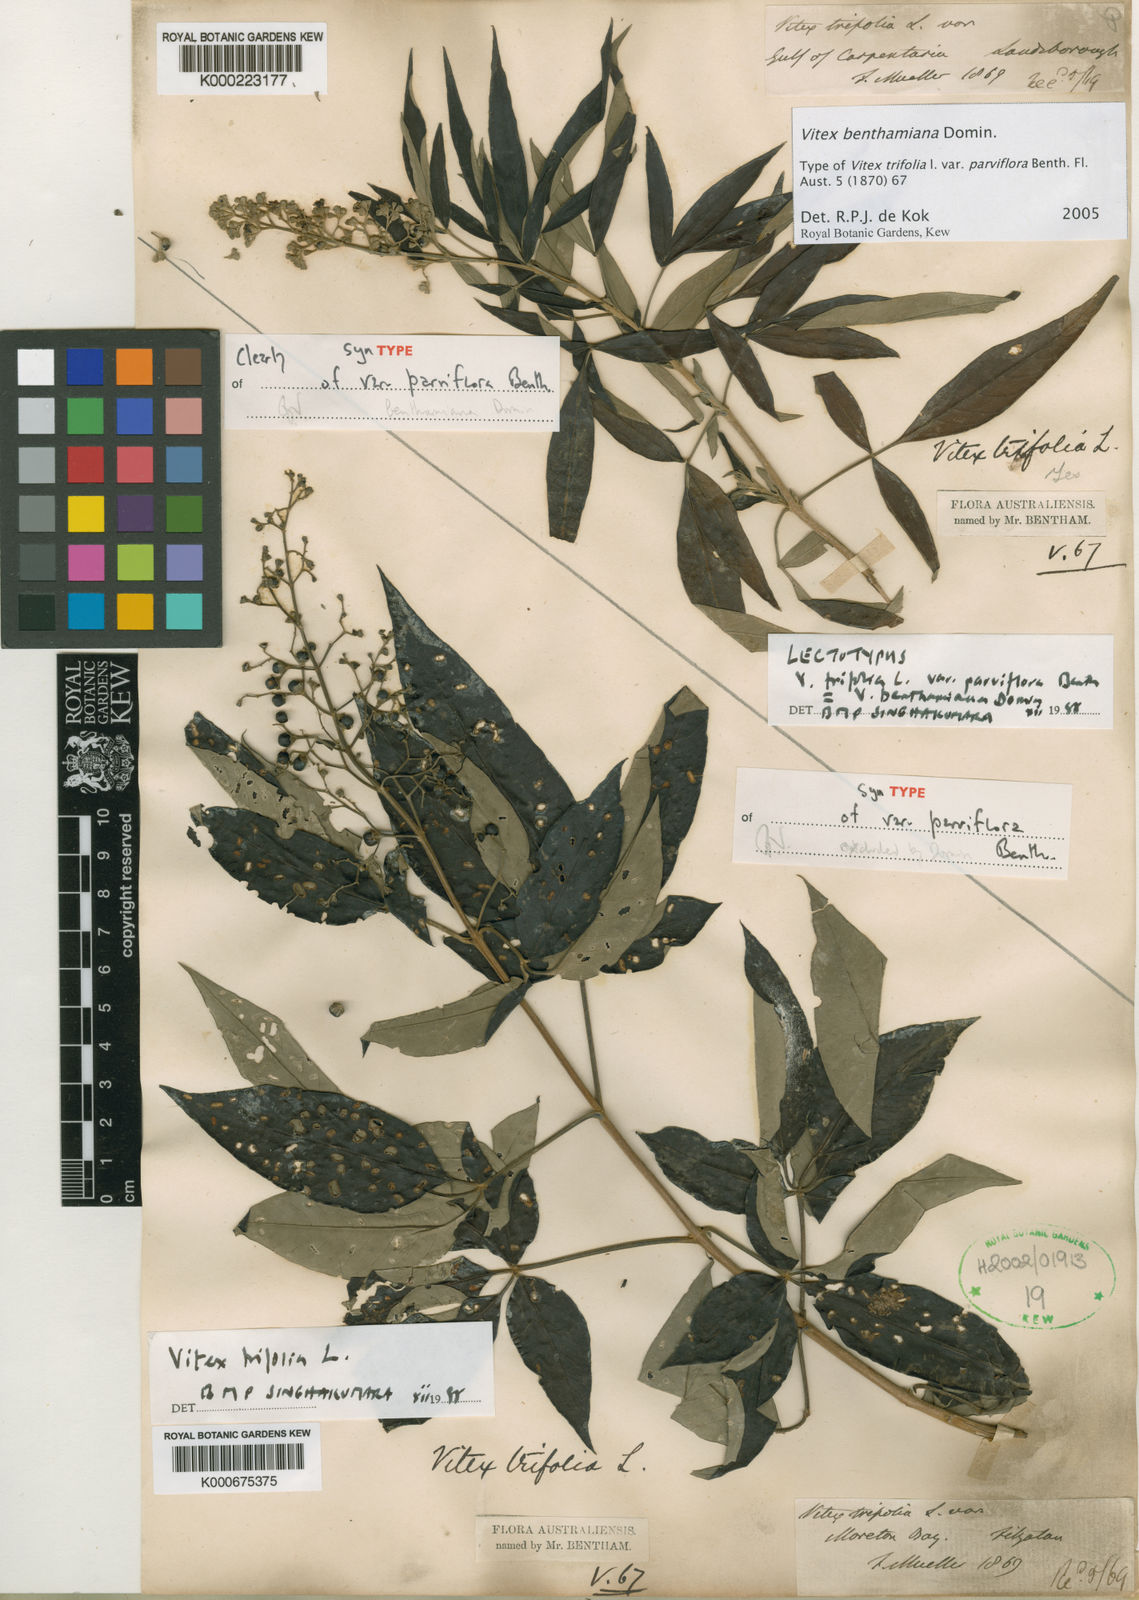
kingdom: Plantae
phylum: Tracheophyta
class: Magnoliopsida
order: Lamiales
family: Lamiaceae
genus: Vitex
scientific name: Vitex trifolia
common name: Simpleleaf chastetree
